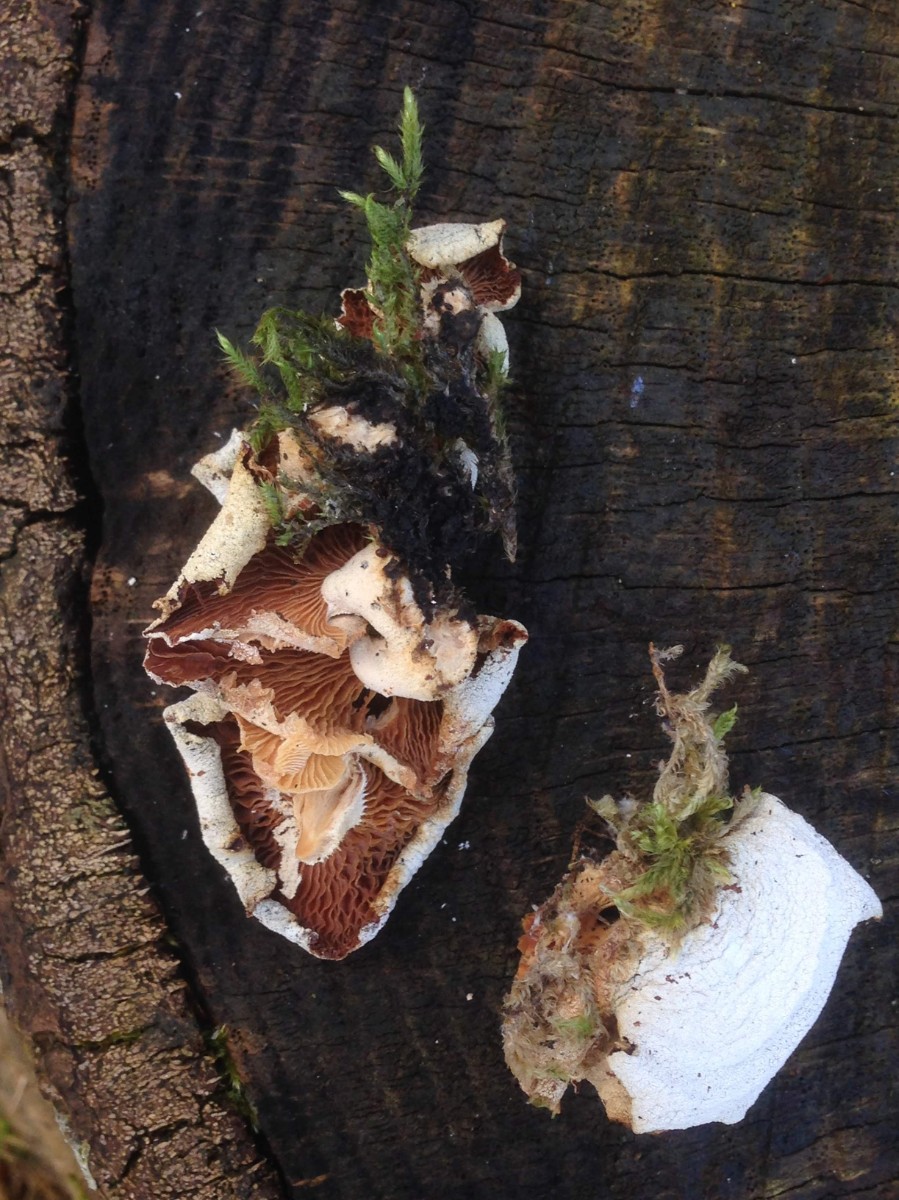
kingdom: Fungi
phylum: Basidiomycota
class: Agaricomycetes
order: Agaricales
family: Mycenaceae
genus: Panellus
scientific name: Panellus stipticus
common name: kliddet epaulethat
